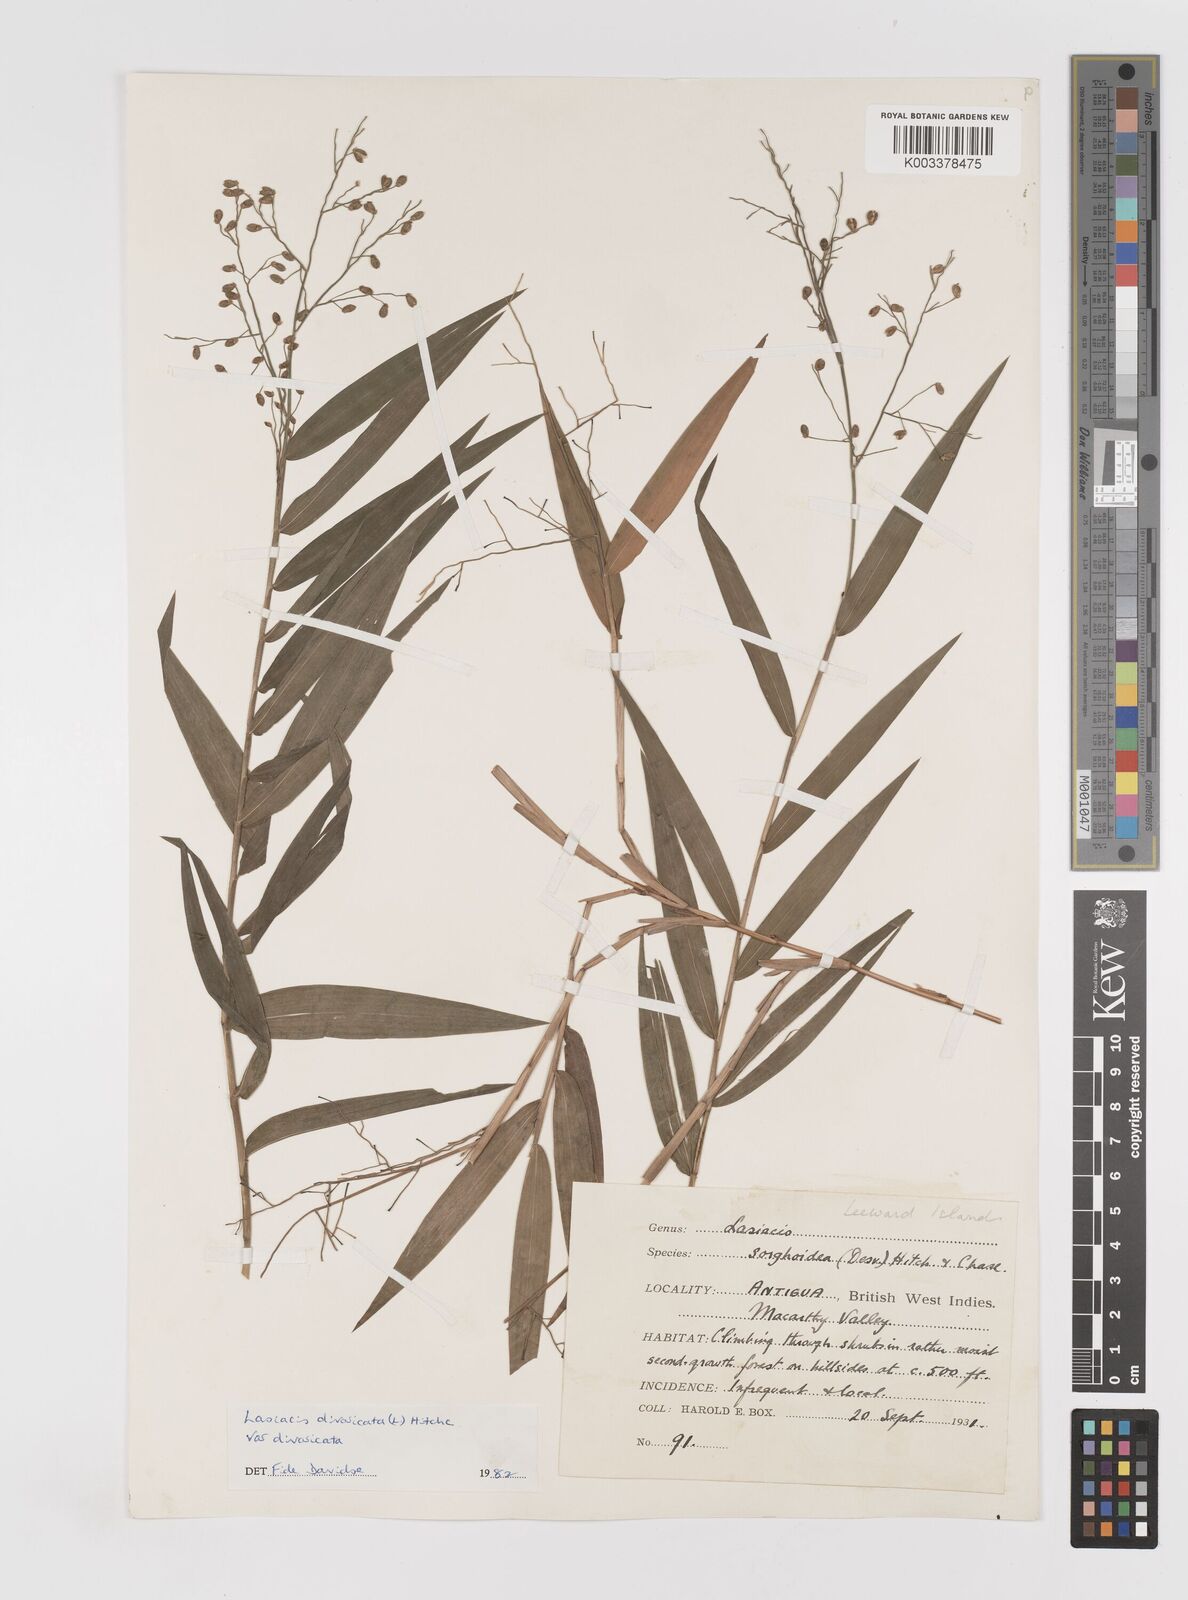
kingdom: Plantae
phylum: Tracheophyta
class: Liliopsida
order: Poales
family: Poaceae
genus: Lasiacis
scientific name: Lasiacis divaricata
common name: Smallcane
